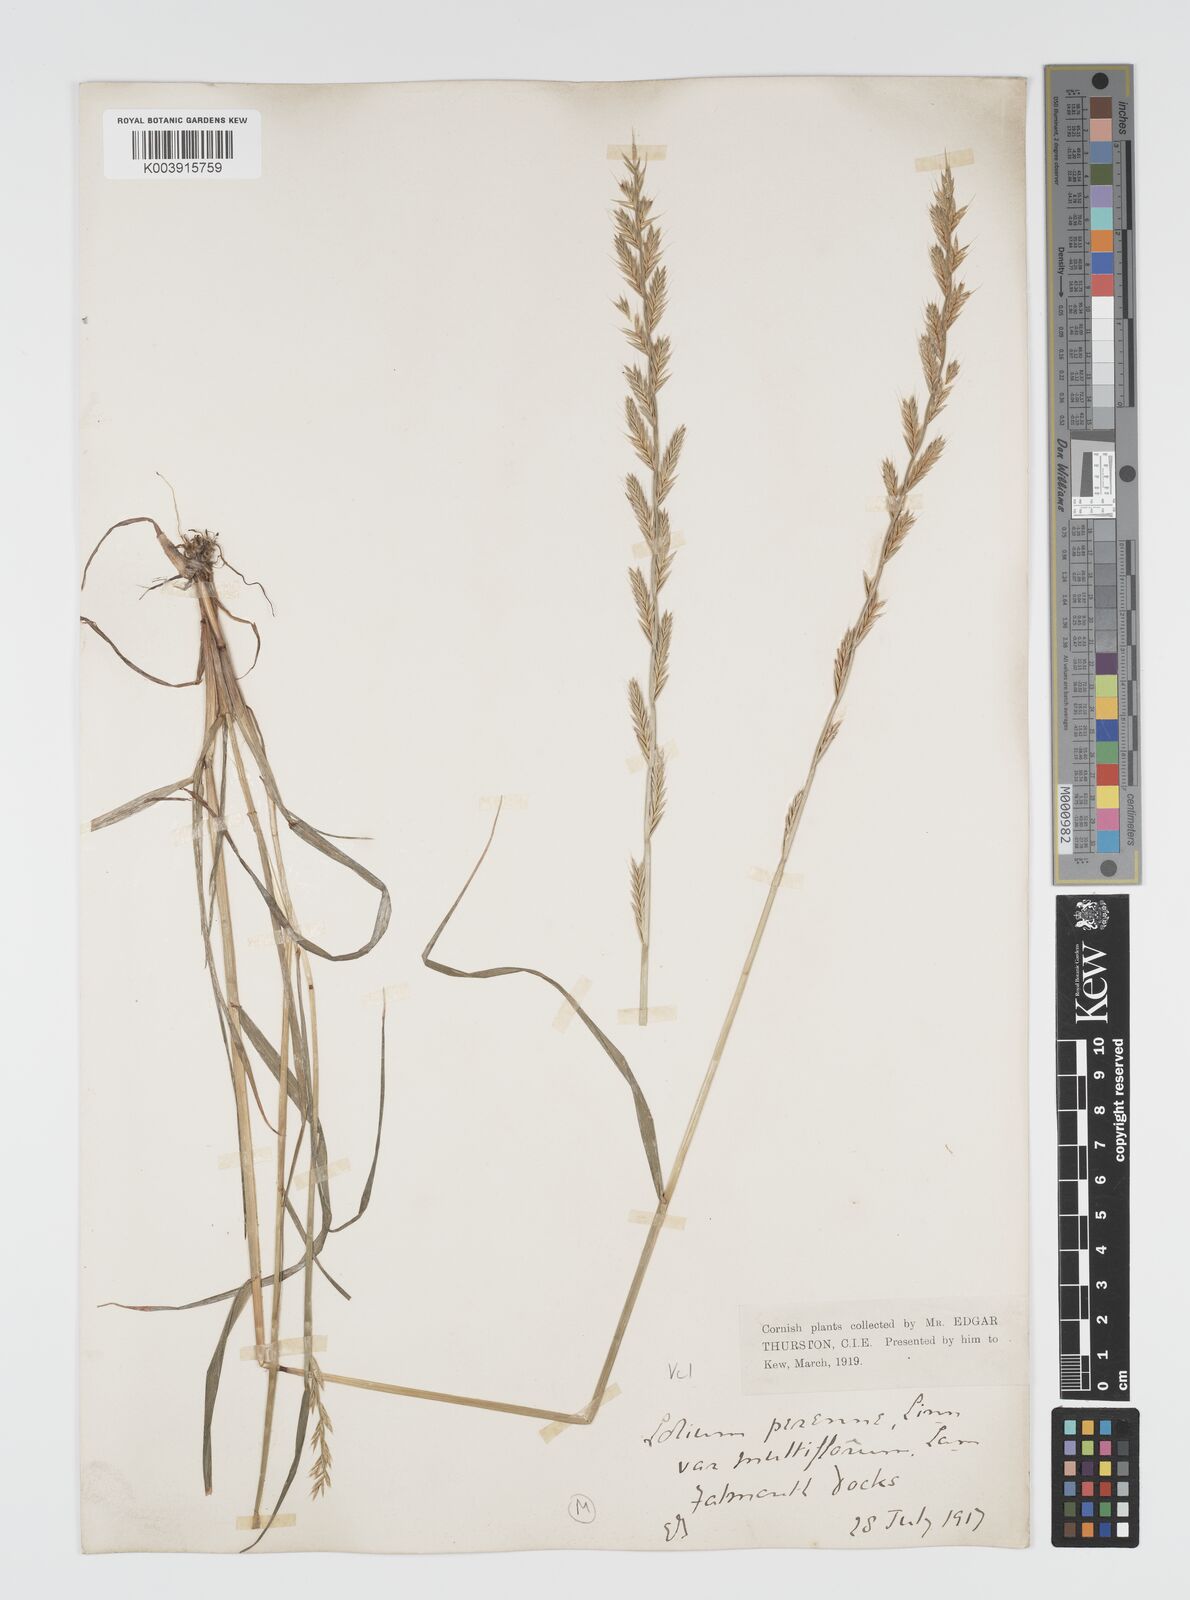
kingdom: Plantae
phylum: Tracheophyta
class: Liliopsida
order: Poales
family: Poaceae
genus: Lolium
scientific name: Lolium multiflorum
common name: Annual ryegrass
